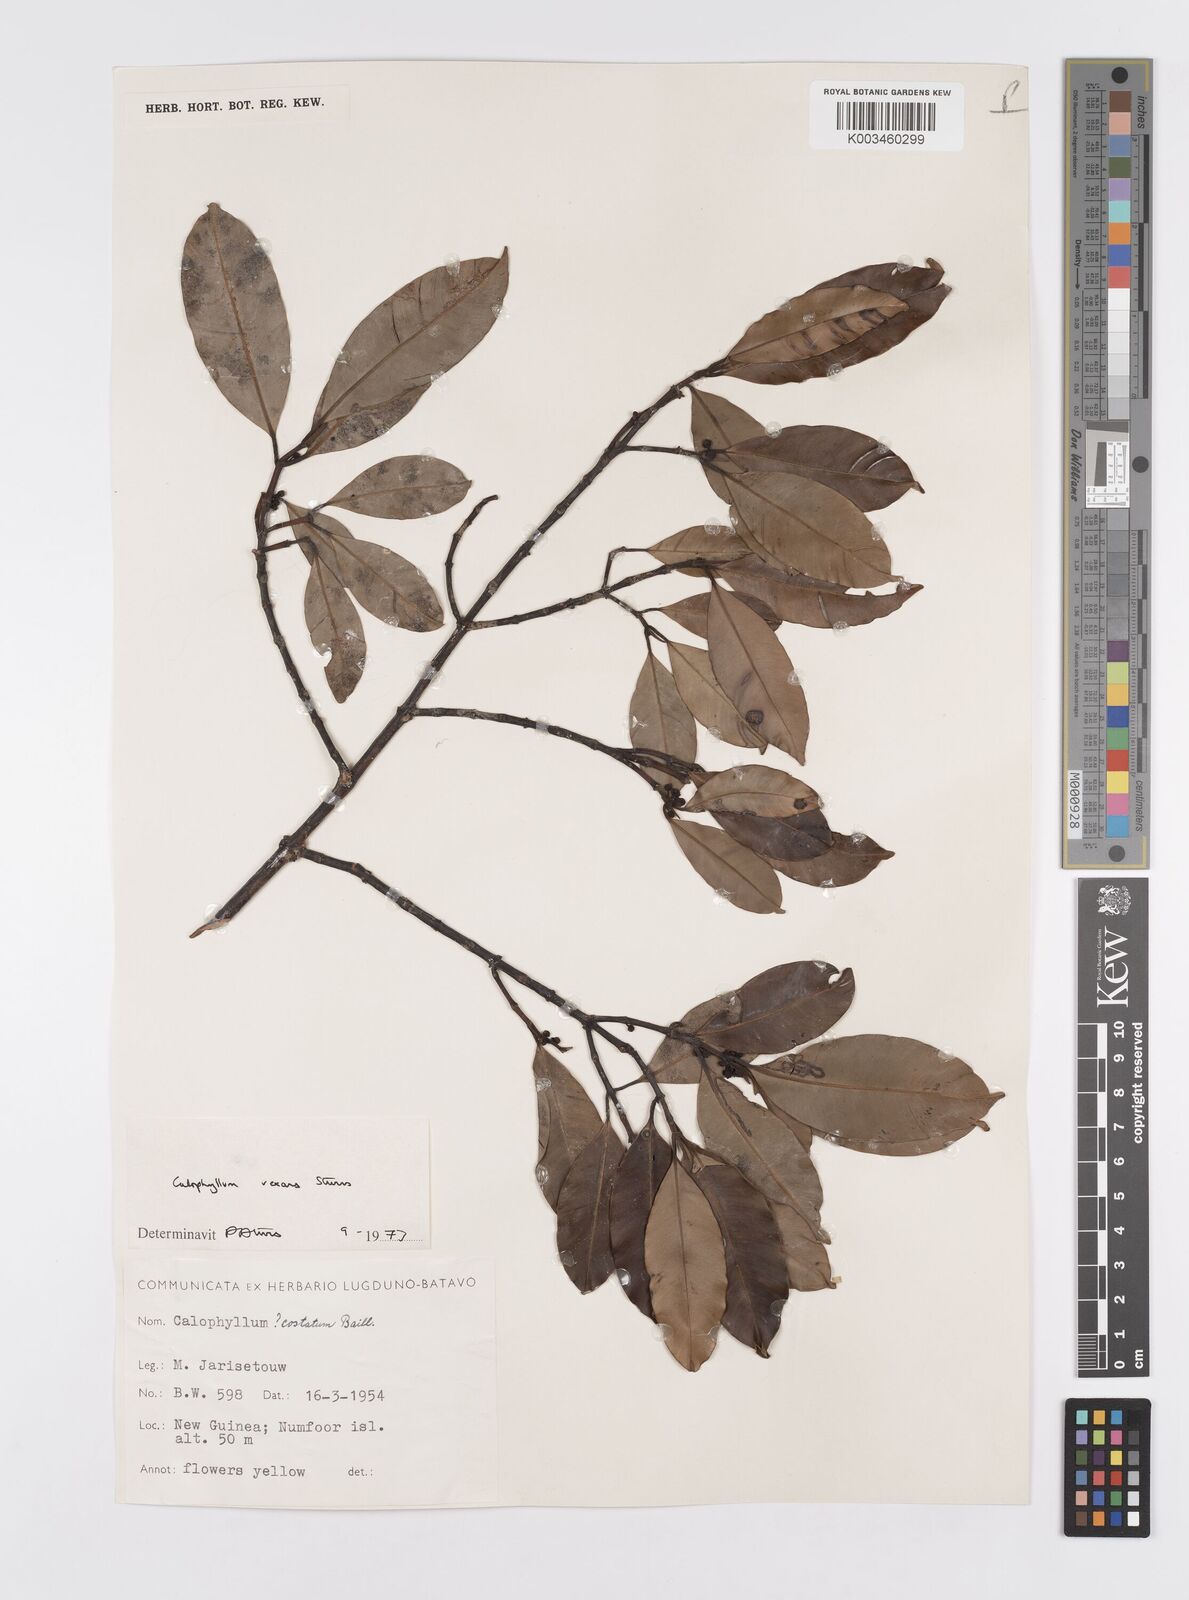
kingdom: Plantae
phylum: Tracheophyta
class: Magnoliopsida
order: Malpighiales
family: Calophyllaceae
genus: Calophyllum
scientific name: Calophyllum vexans
